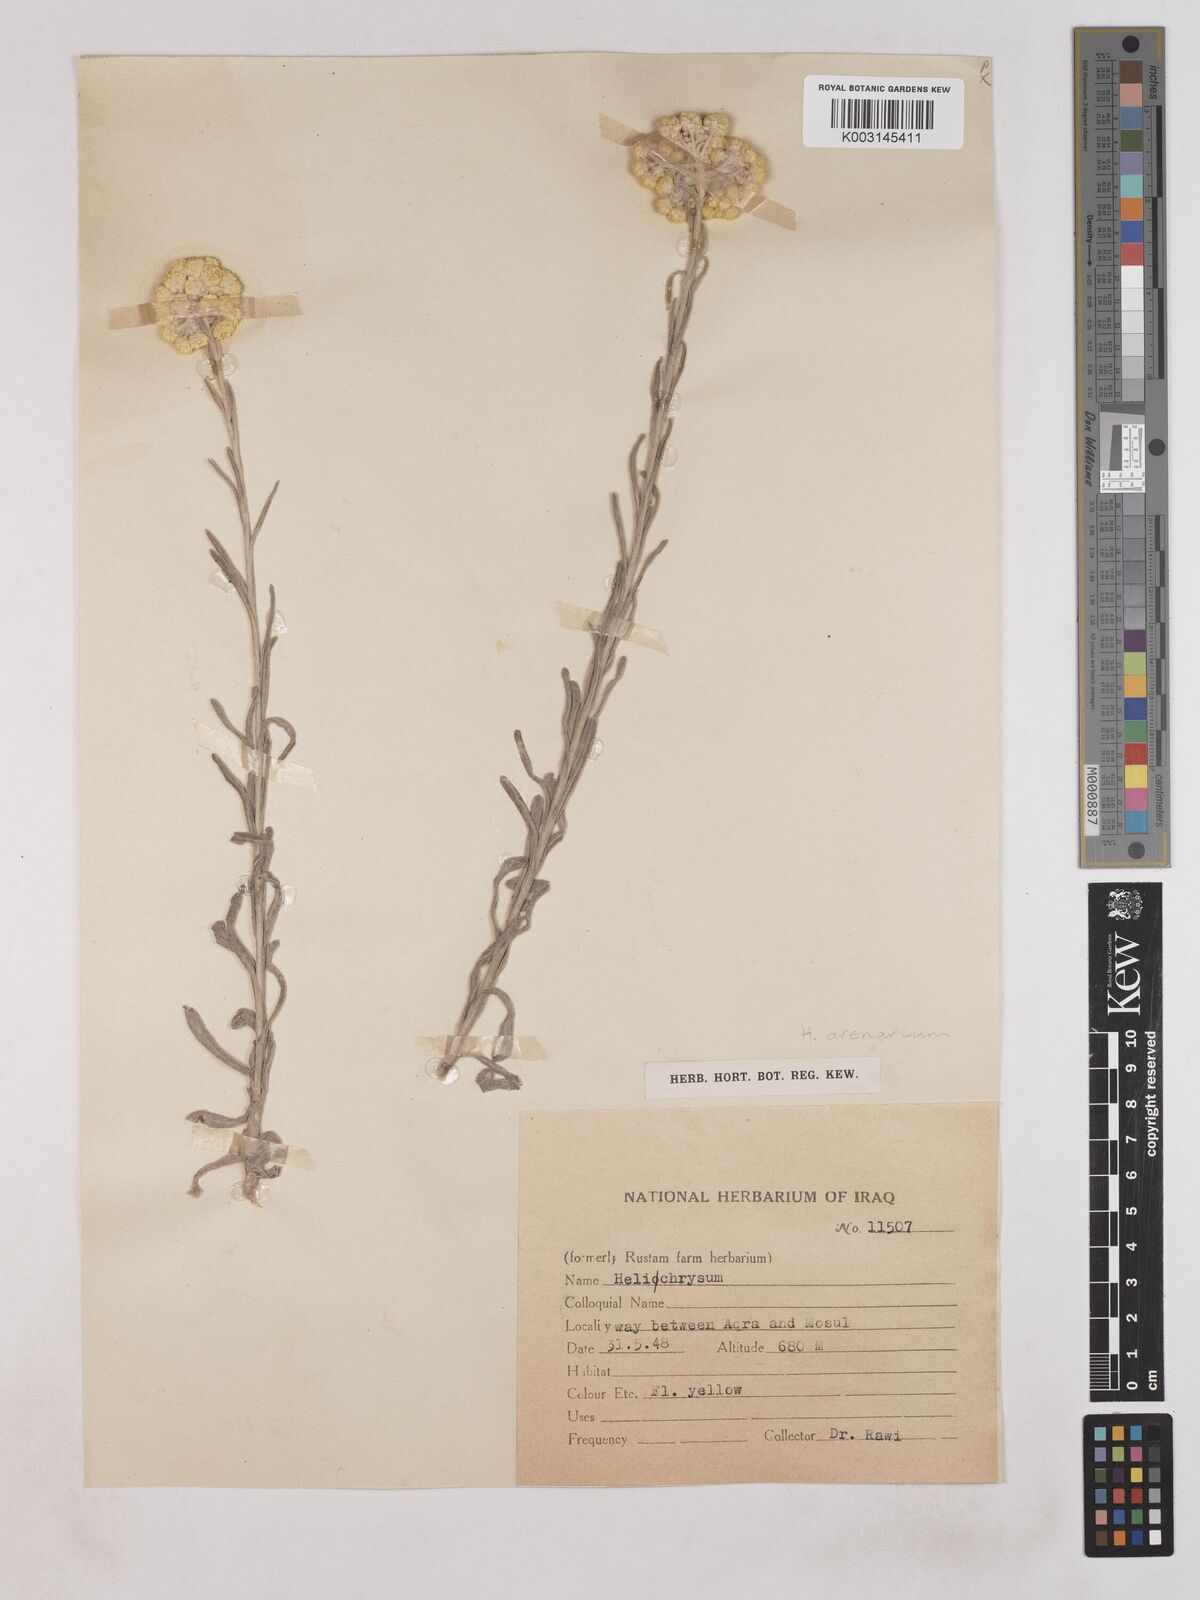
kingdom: Plantae
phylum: Tracheophyta
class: Magnoliopsida
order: Asterales
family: Asteraceae
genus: Helichrysum
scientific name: Helichrysum arenarium
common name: Strawflower
